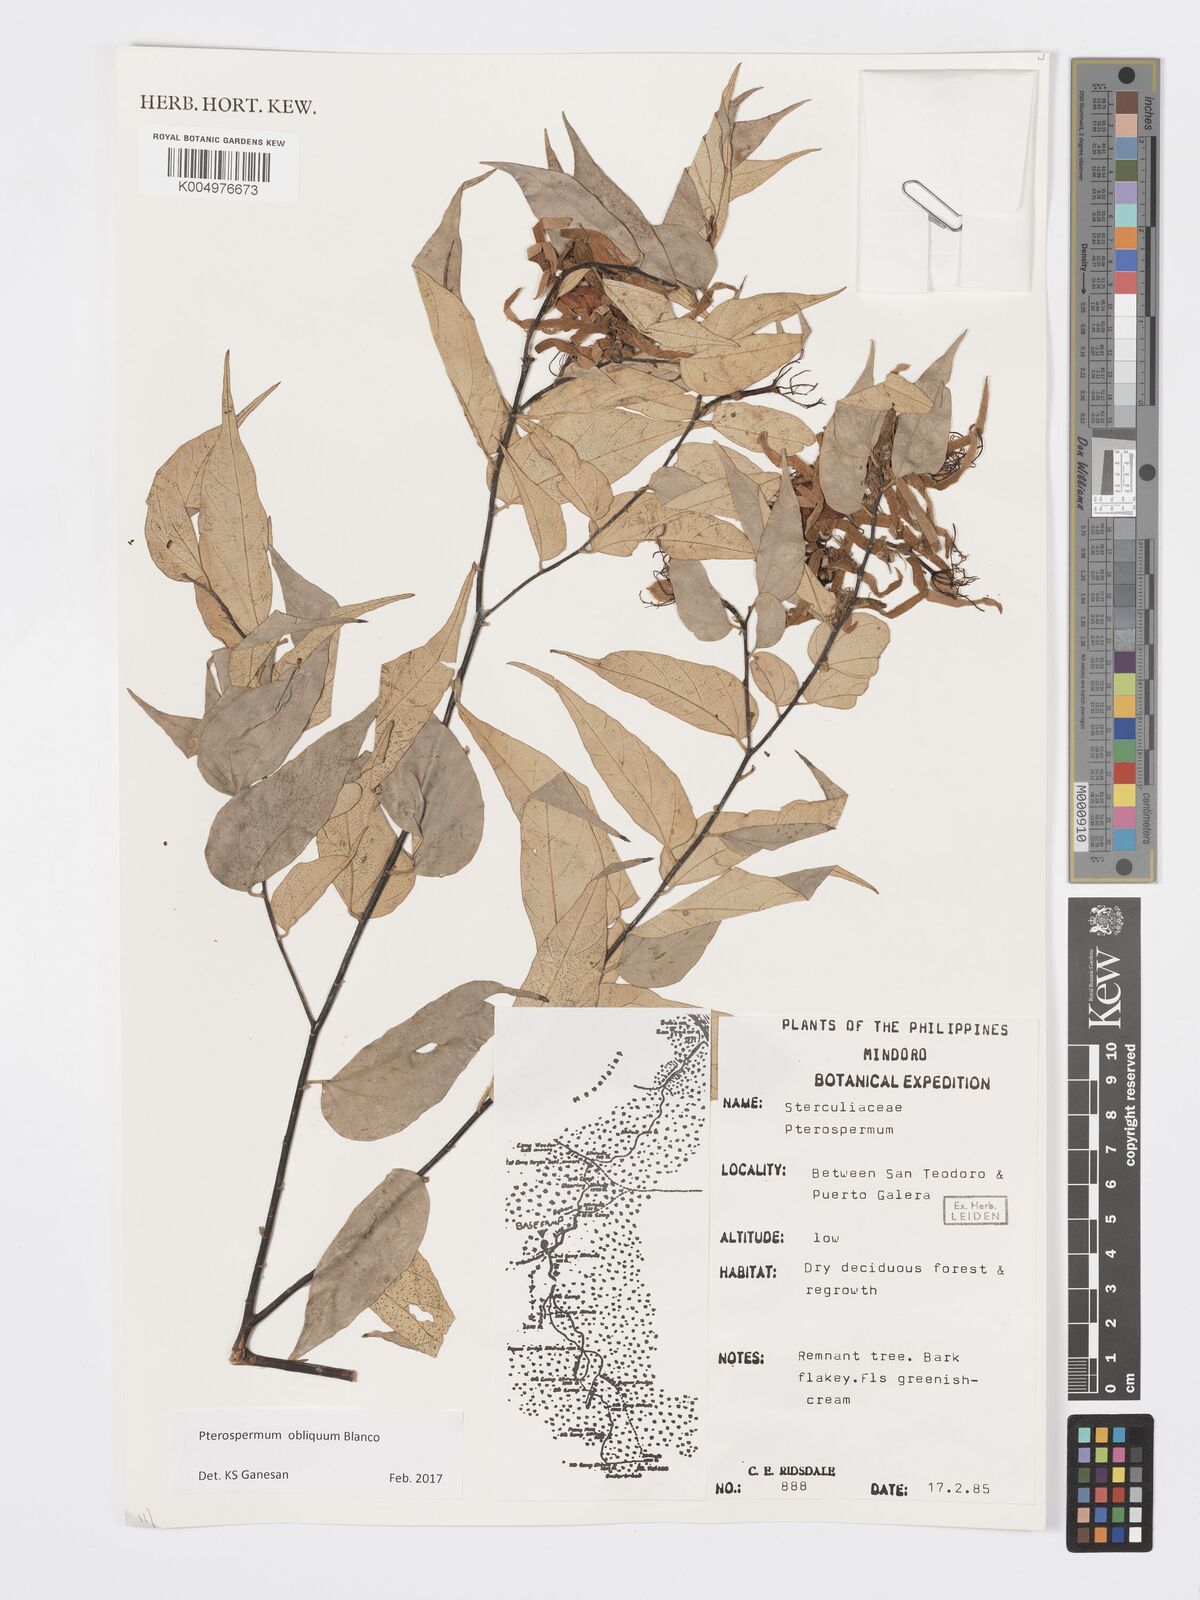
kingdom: Plantae
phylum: Tracheophyta
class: Magnoliopsida
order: Malvales
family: Malvaceae
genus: Pterospermum
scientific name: Pterospermum obliquum
